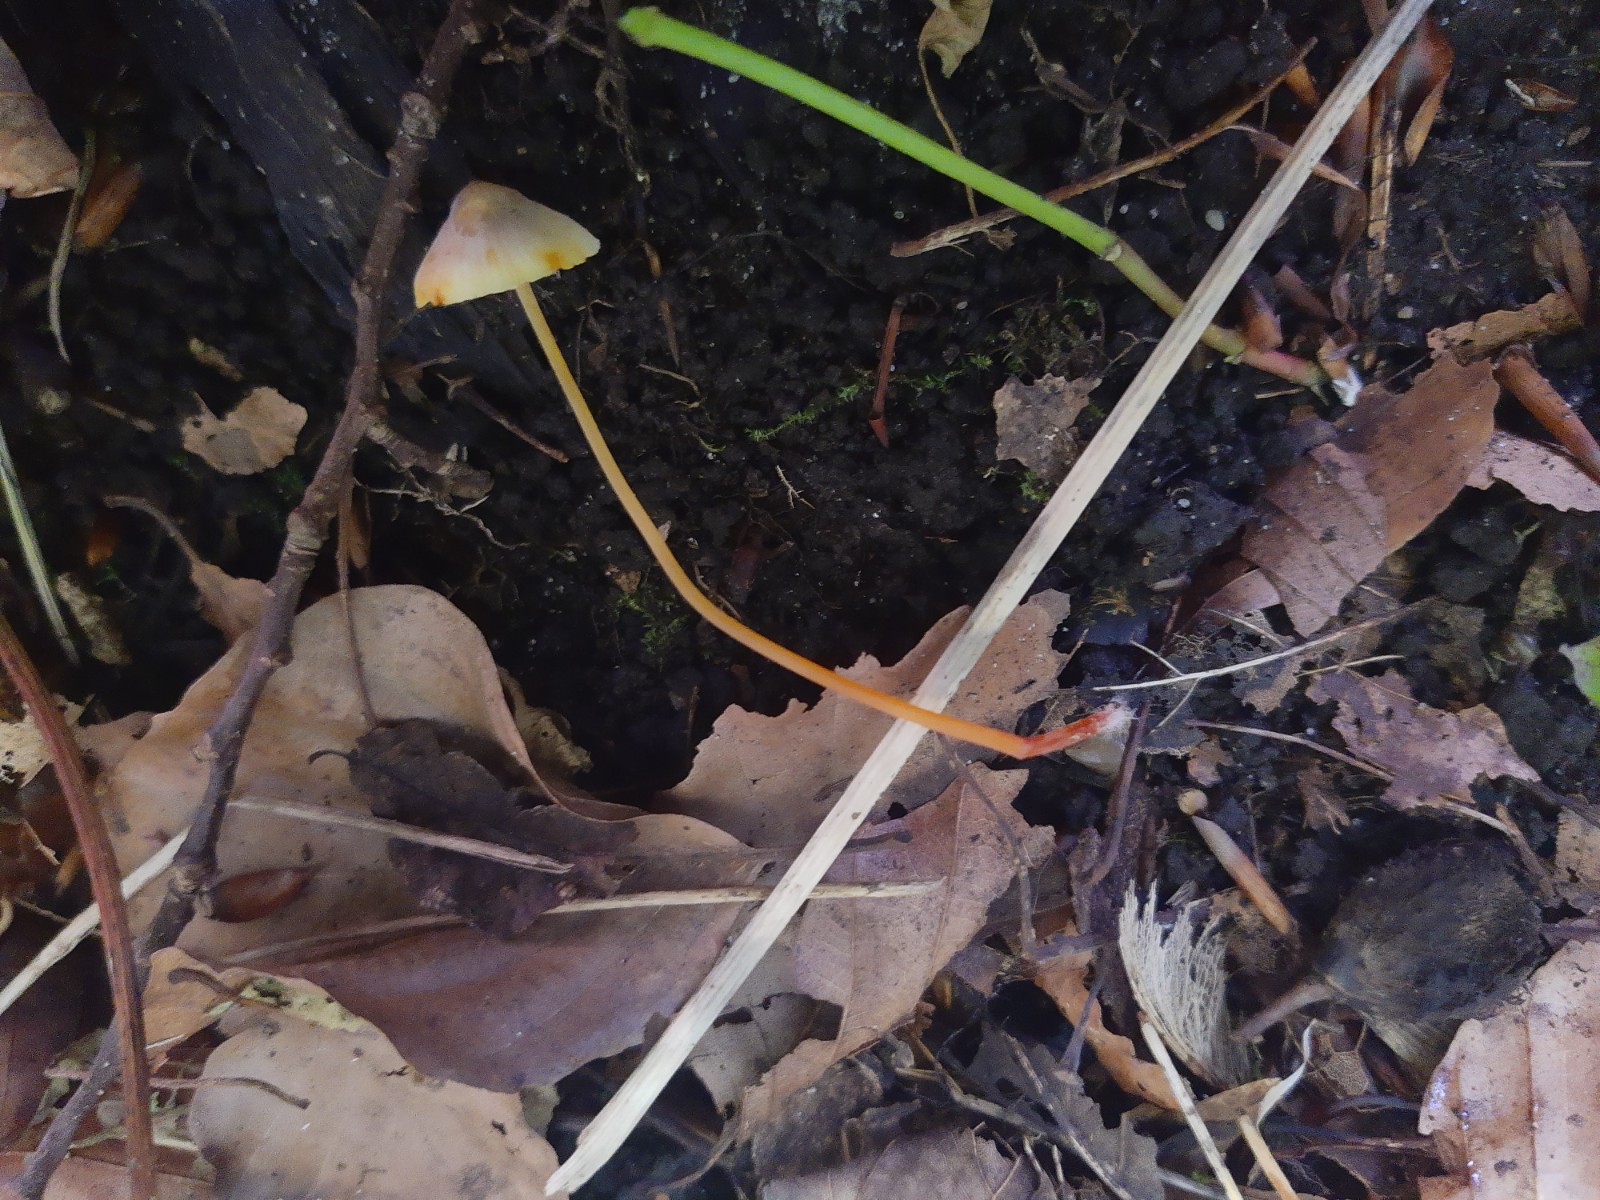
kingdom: Fungi
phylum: Basidiomycota
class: Agaricomycetes
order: Agaricales
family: Mycenaceae
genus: Mycena
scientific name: Mycena crocata
